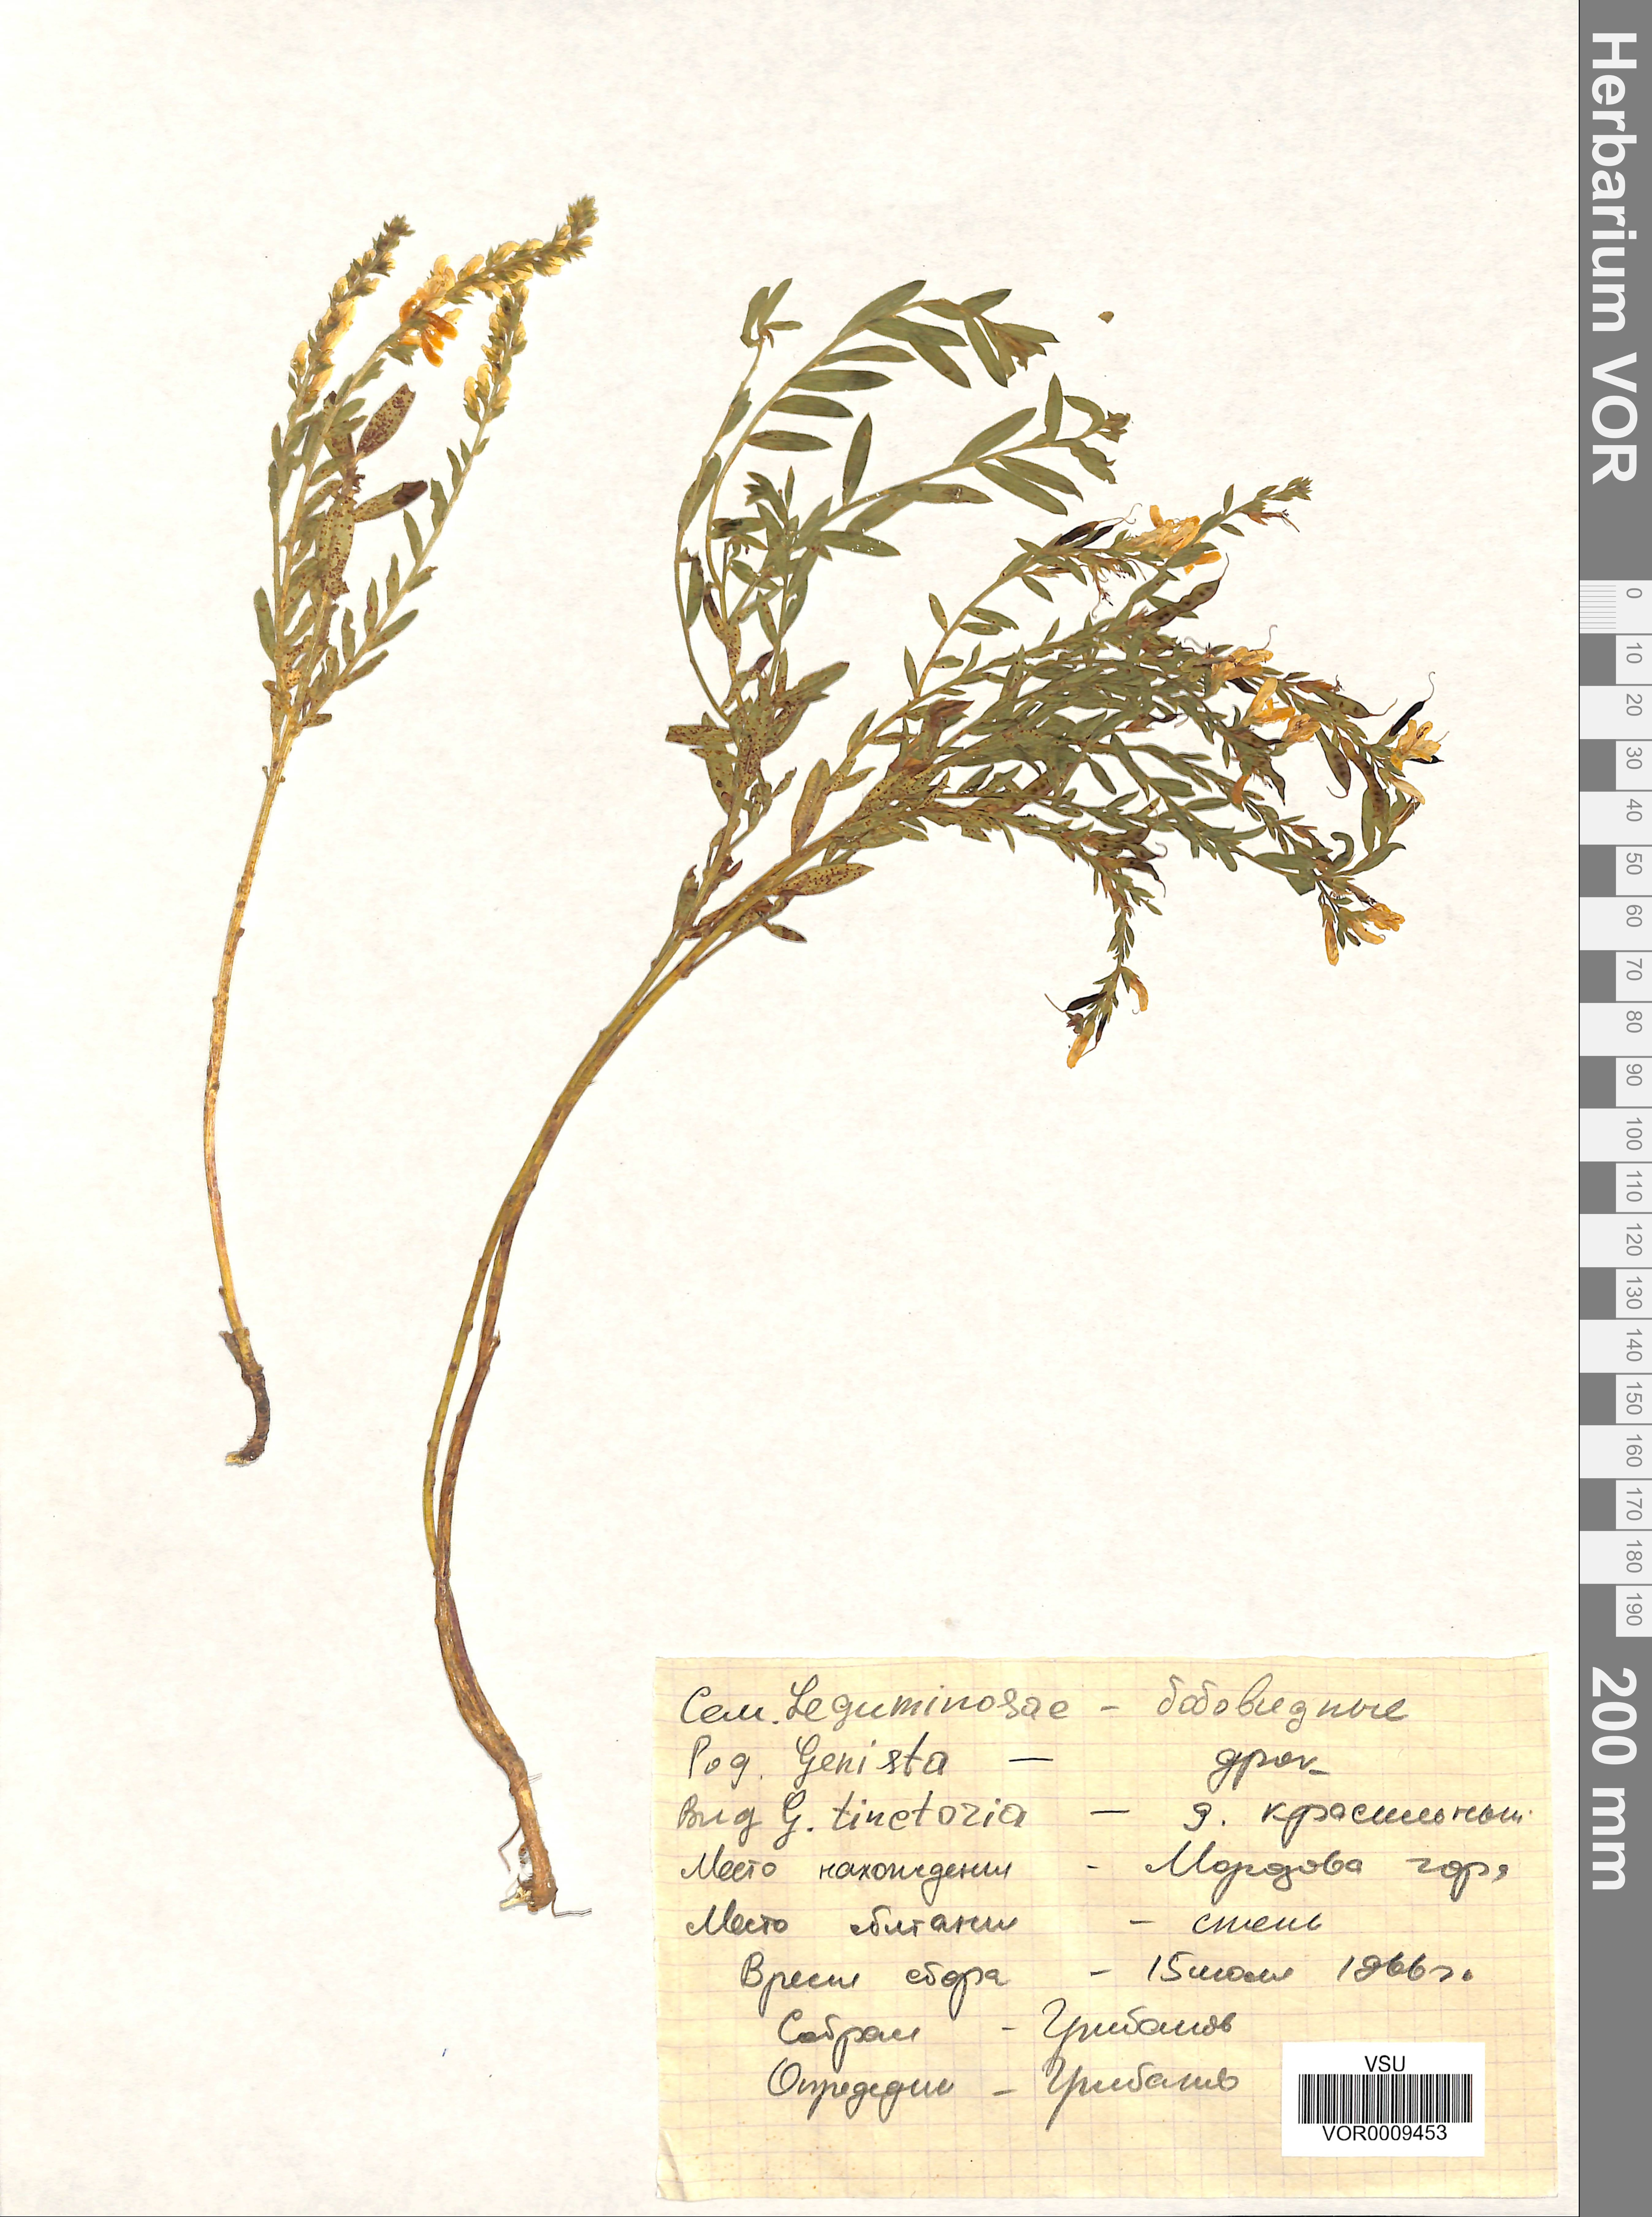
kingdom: Plantae
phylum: Tracheophyta
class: Magnoliopsida
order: Fabales
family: Fabaceae
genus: Genista
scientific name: Genista tinctoria
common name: Dyer's greenweed
